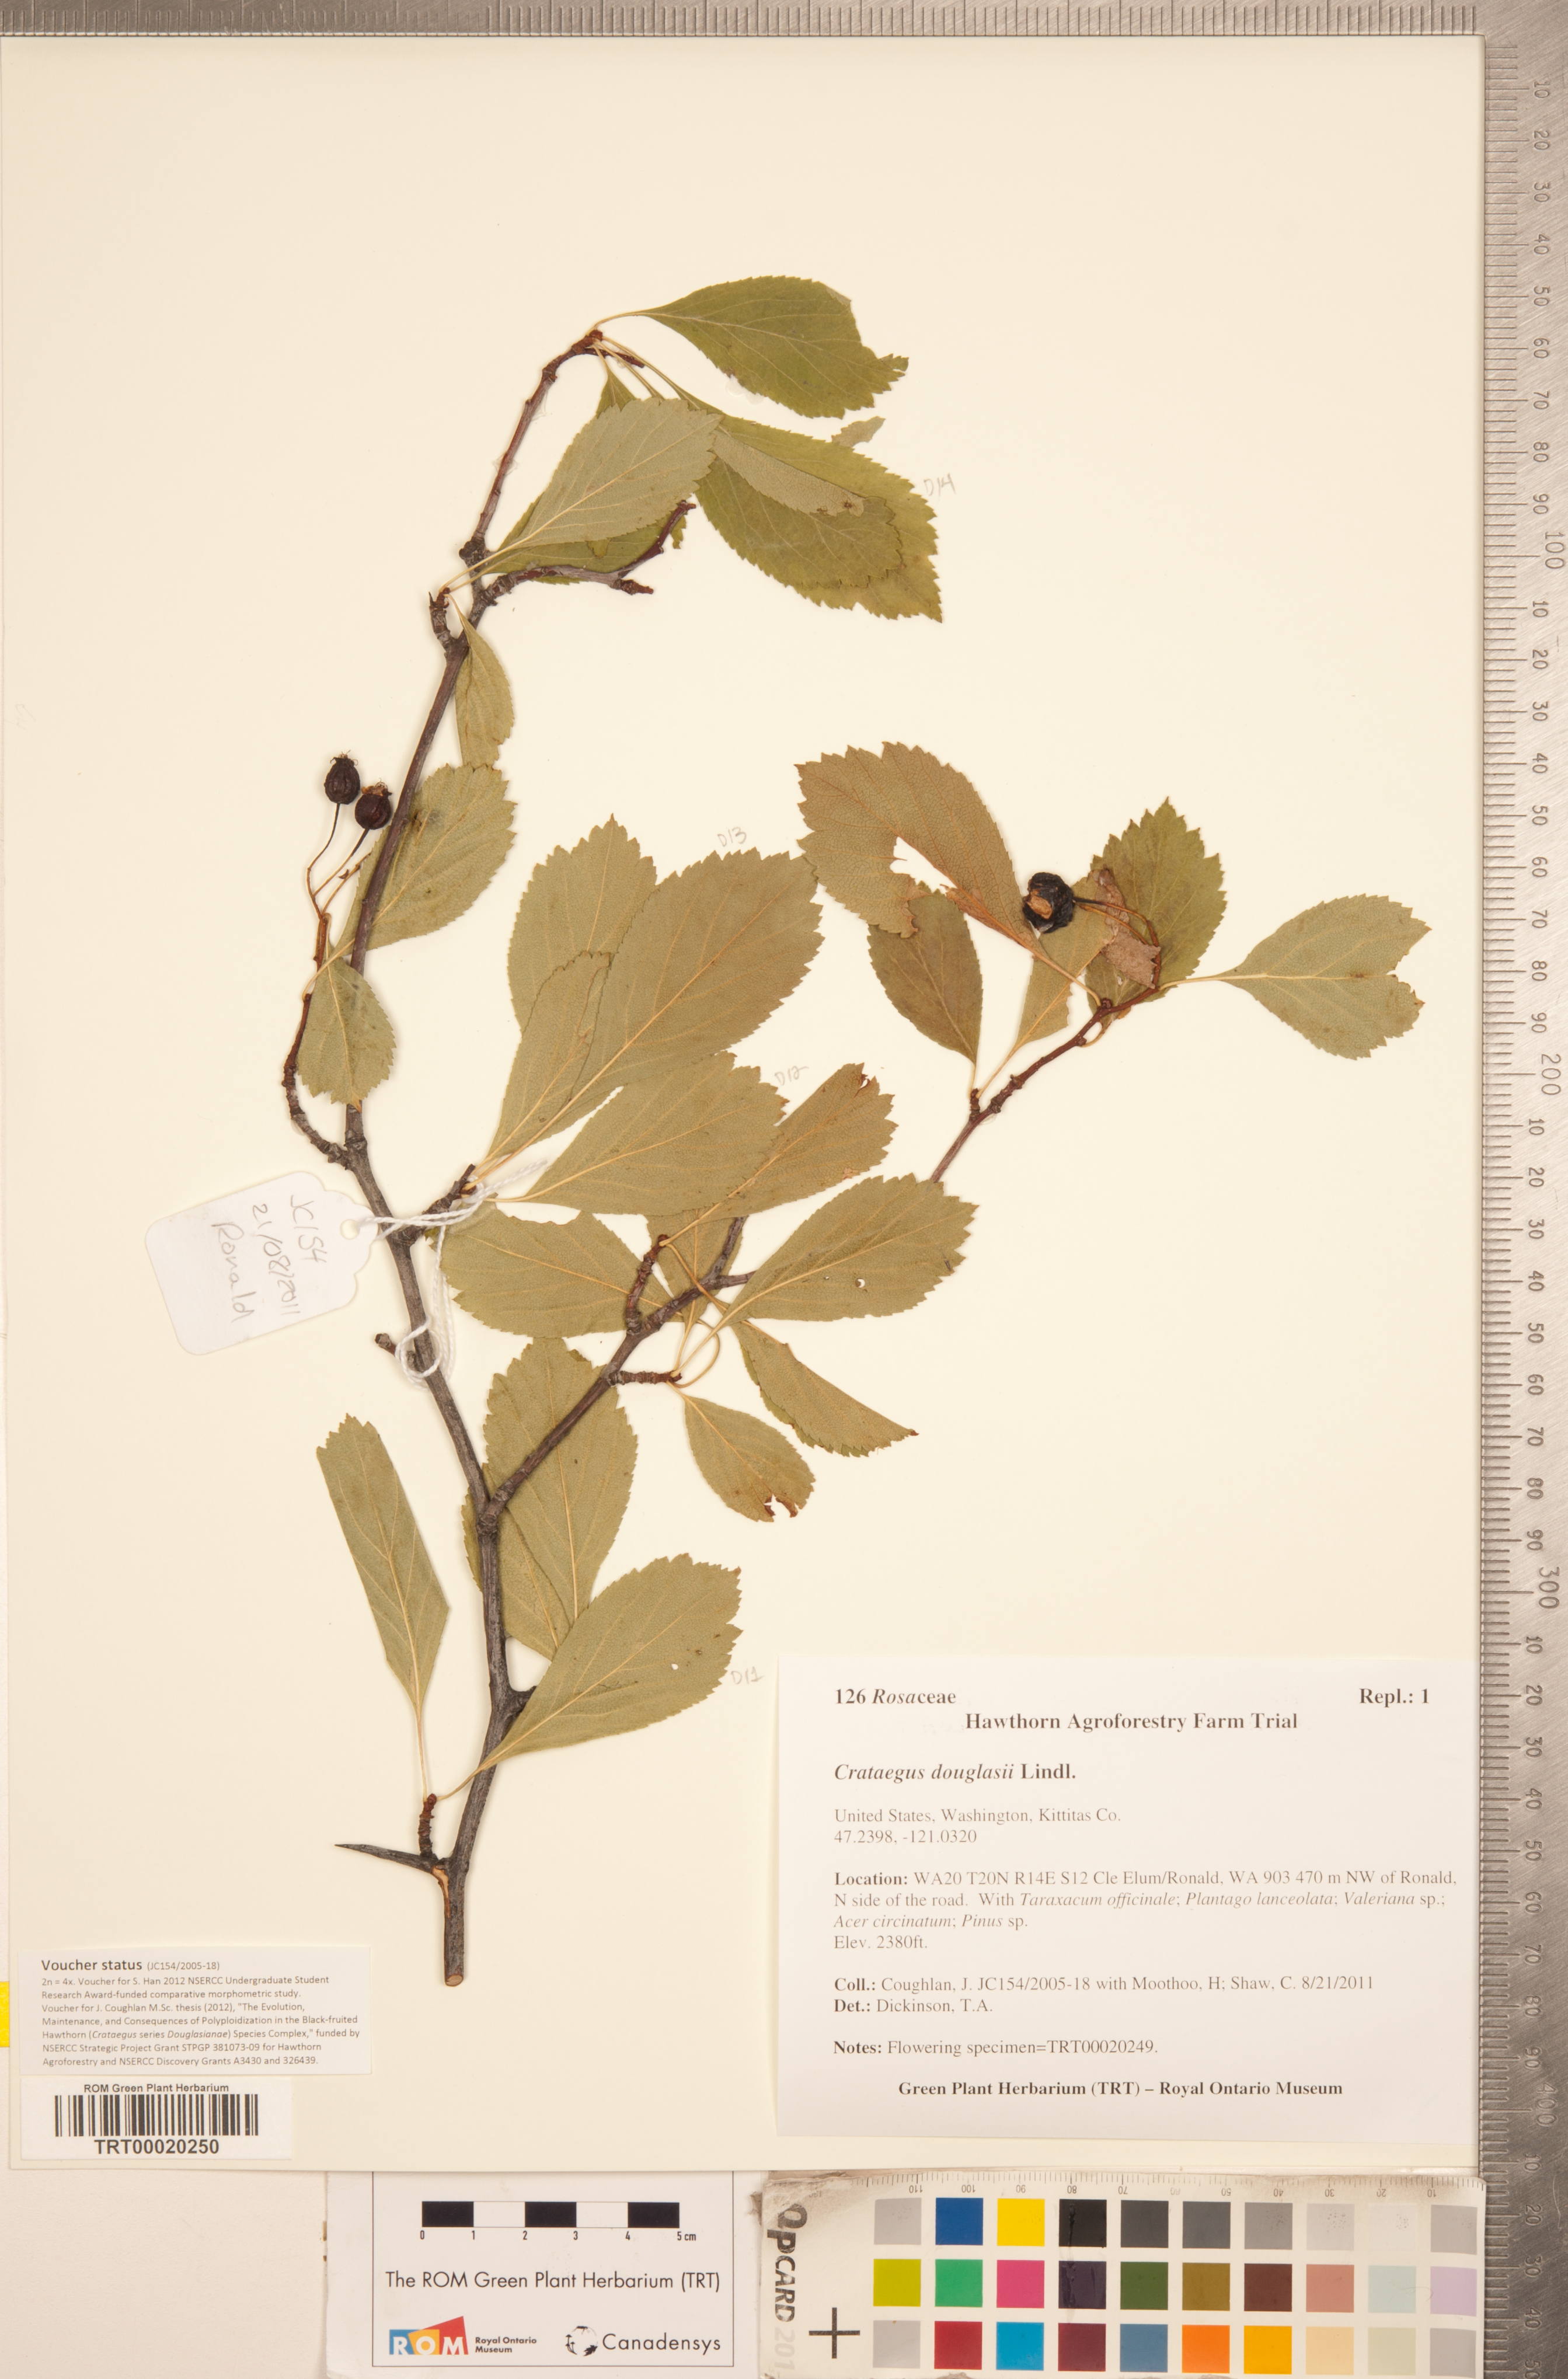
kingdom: Plantae
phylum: Tracheophyta
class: Magnoliopsida
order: Rosales
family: Rosaceae
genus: Crataegus
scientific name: Crataegus douglasii
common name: Black hawthorn
